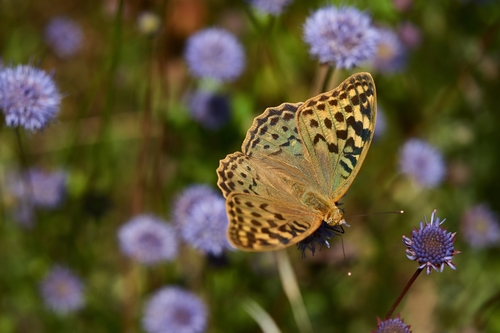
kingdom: Animalia
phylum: Arthropoda
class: Insecta
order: Lepidoptera
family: Nymphalidae
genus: Damora
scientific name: Damora pandora
